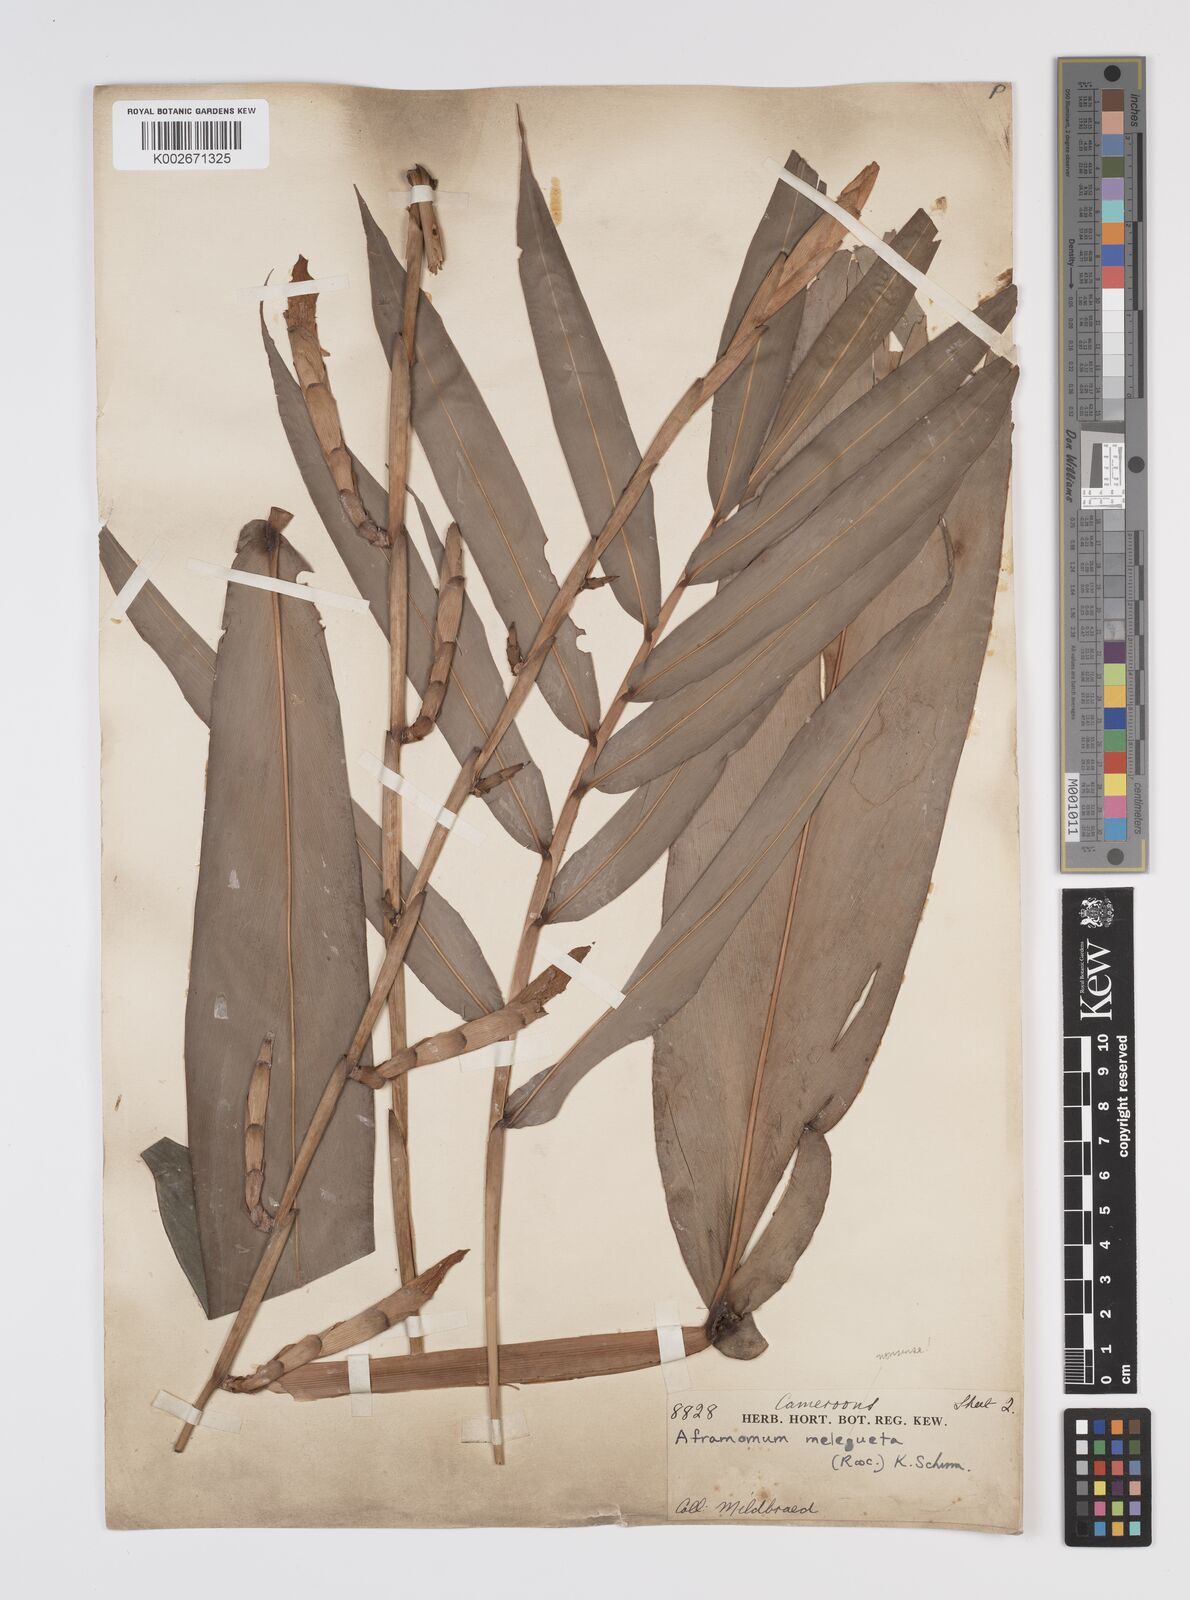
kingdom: Plantae
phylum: Tracheophyta
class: Liliopsida
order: Zingiberales
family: Zingiberaceae
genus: Aframomum
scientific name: Aframomum letestuanum
